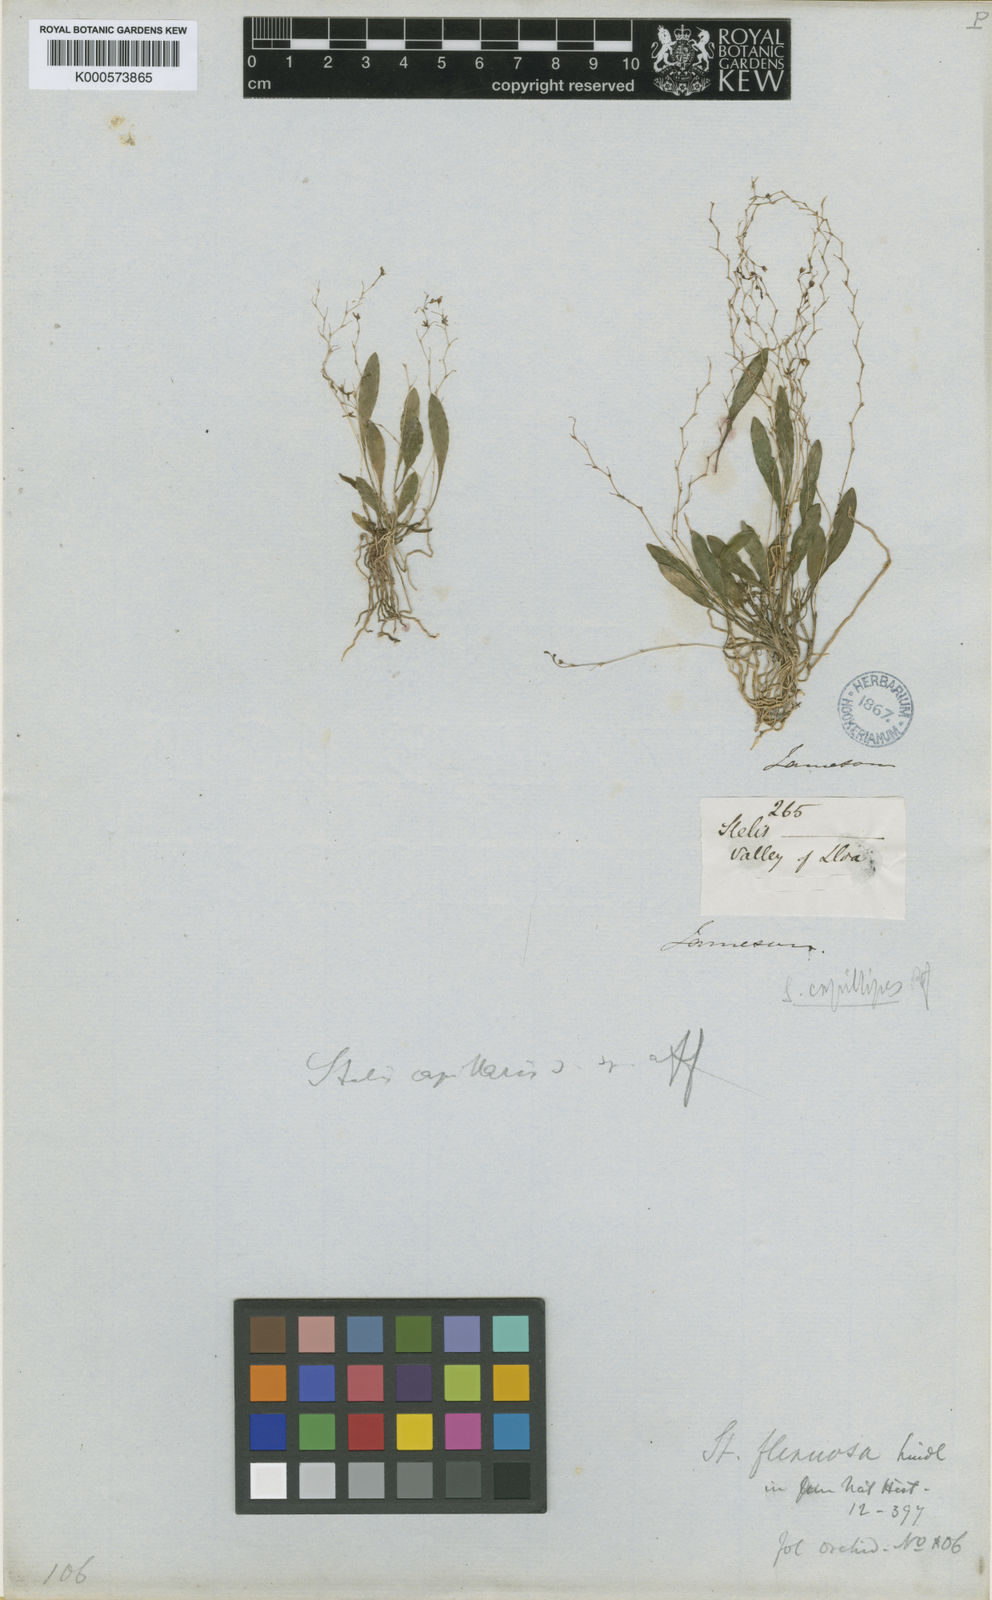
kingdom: Plantae
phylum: Tracheophyta
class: Liliopsida
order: Asparagales
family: Orchidaceae
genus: Stelis
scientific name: Stelis concinna
